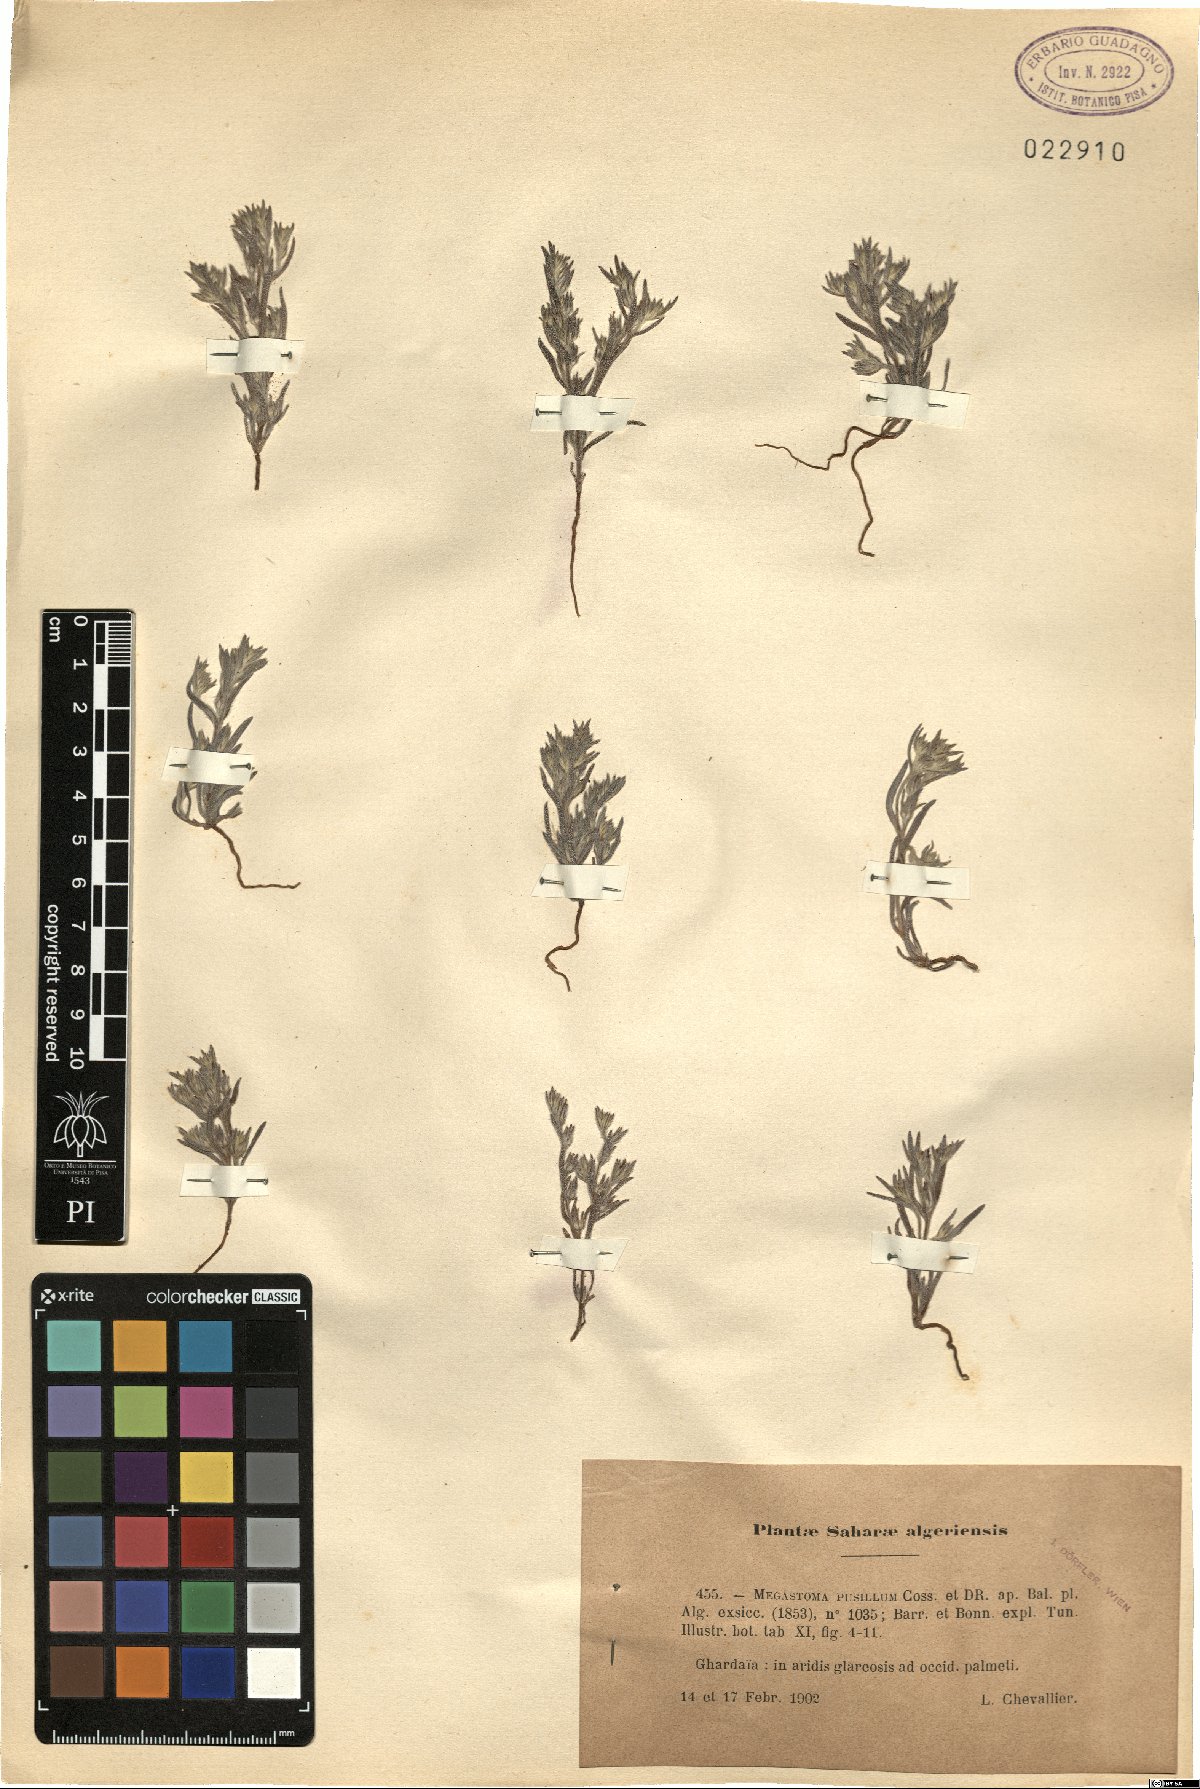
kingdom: Plantae
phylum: Tracheophyta
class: Magnoliopsida
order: Boraginales
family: Boraginaceae
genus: Ogastemma
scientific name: Ogastemma pusillum
